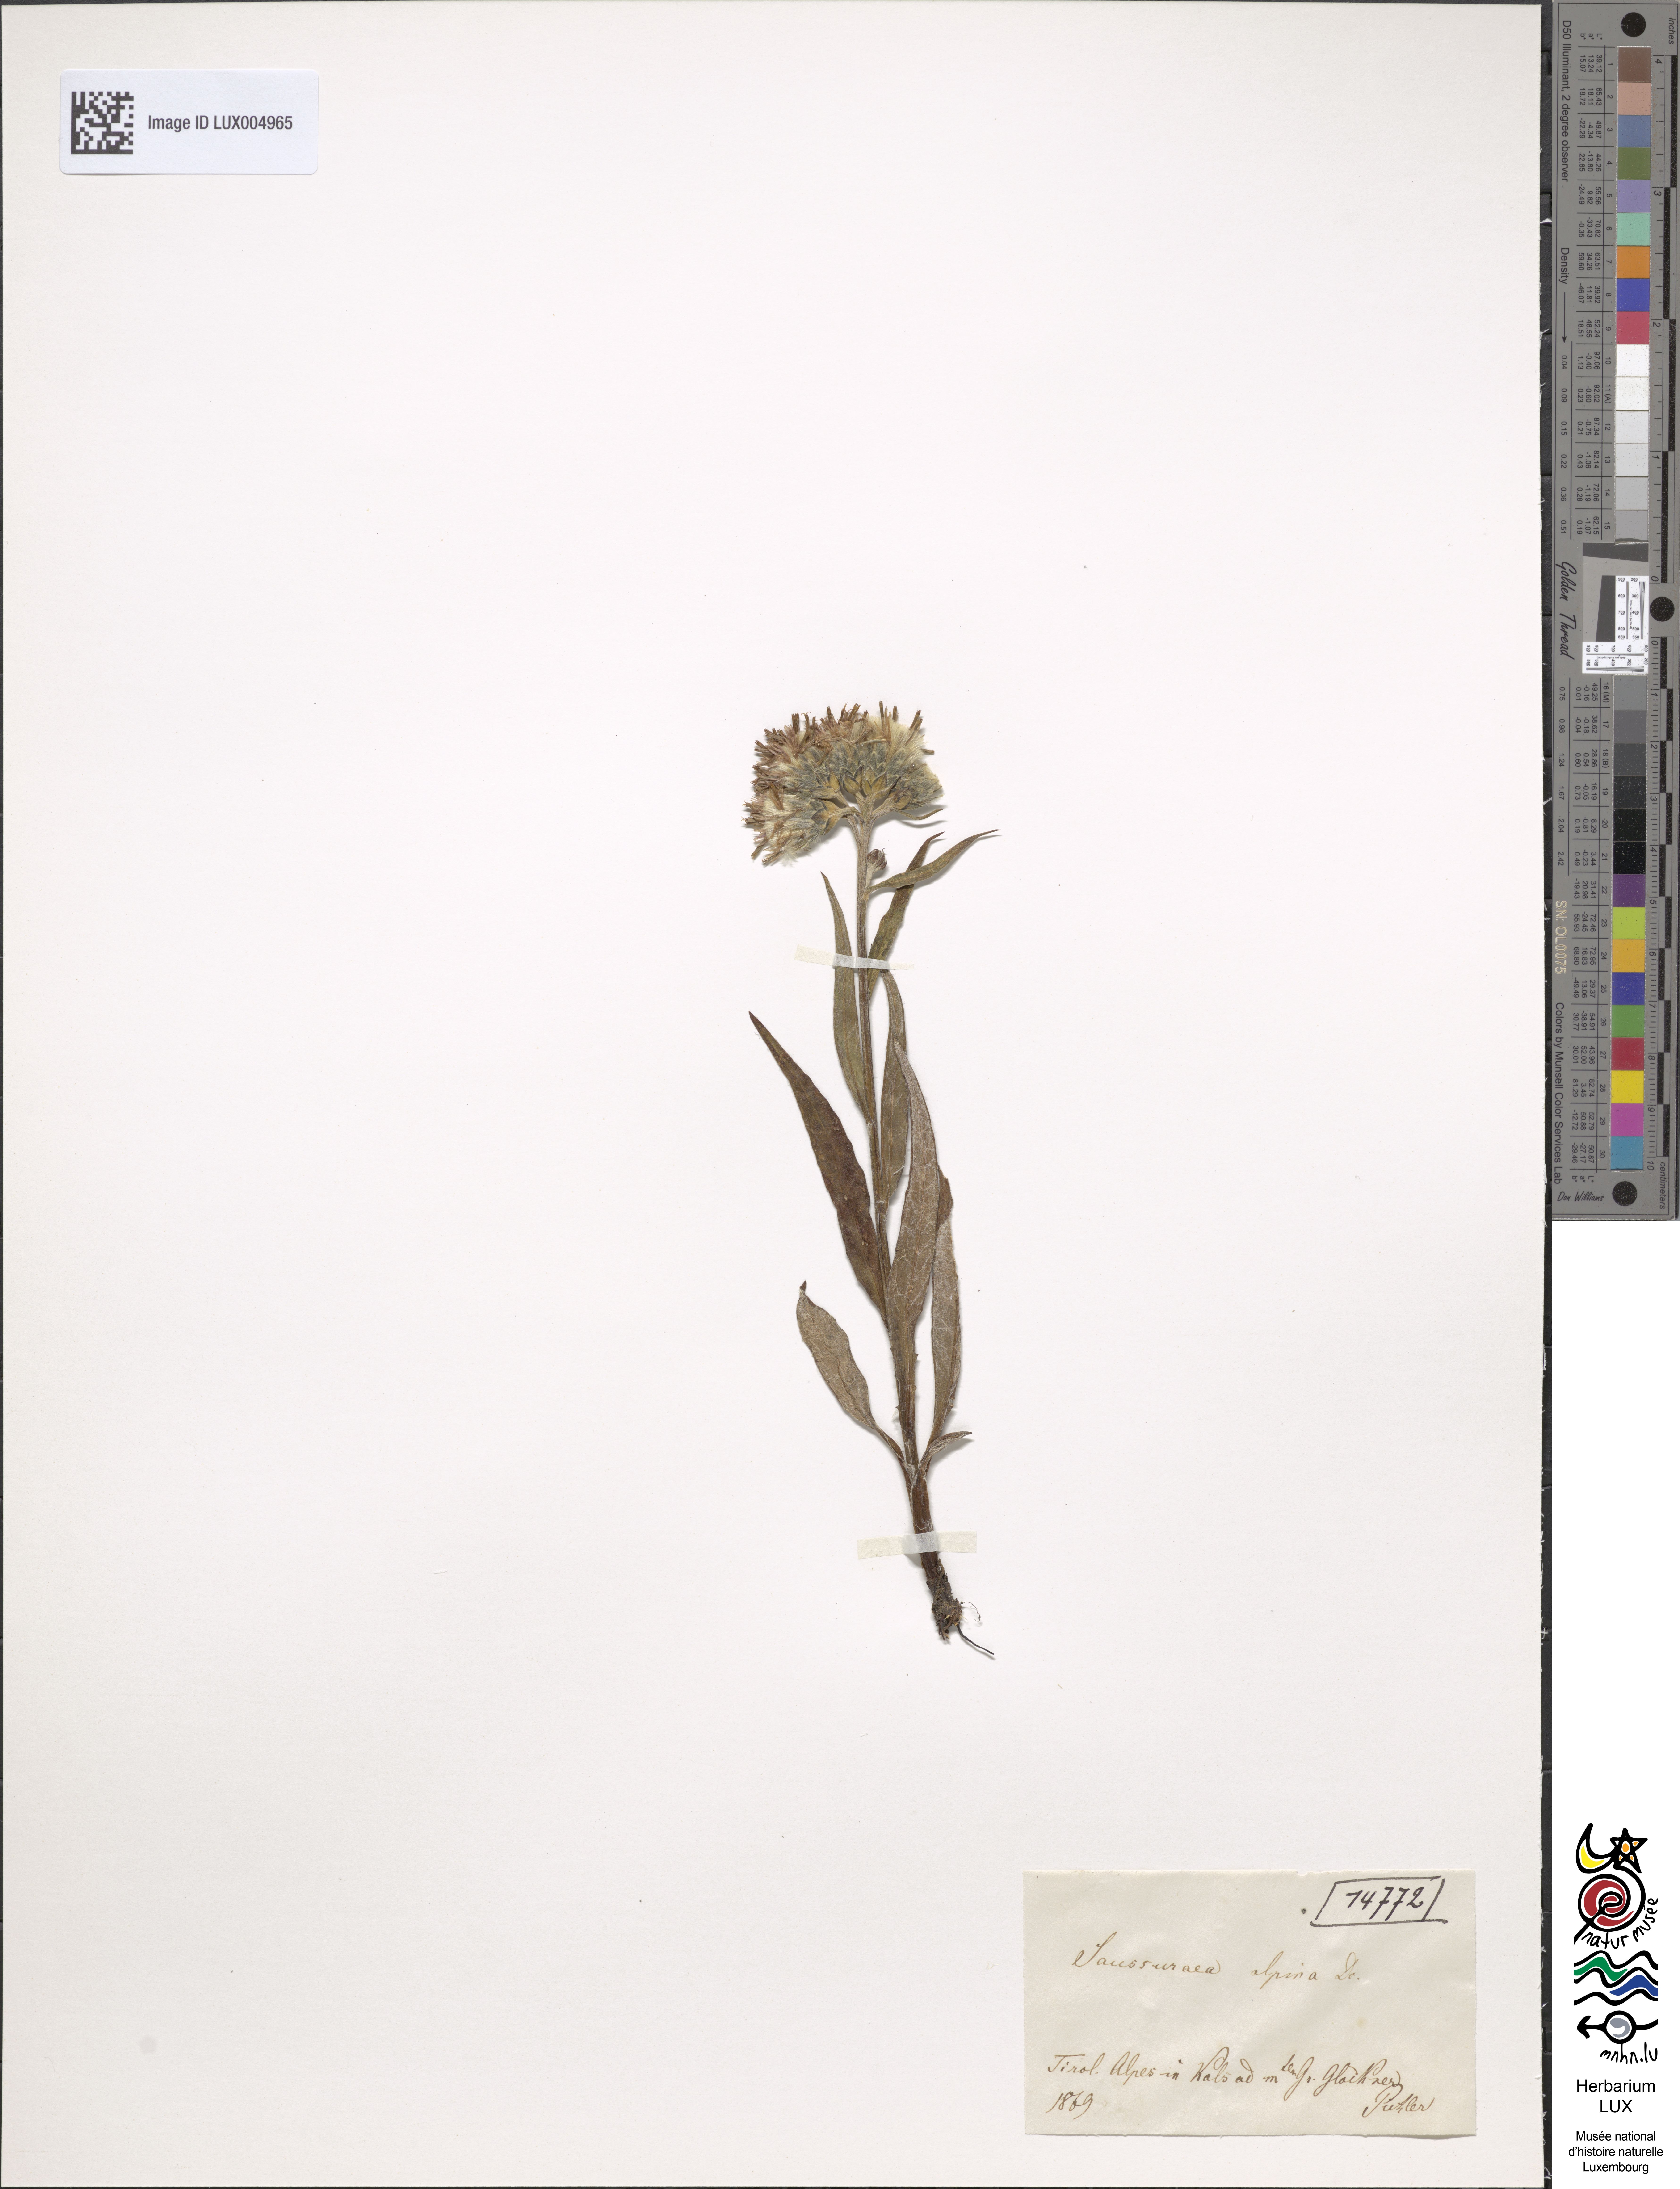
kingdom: Plantae
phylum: Tracheophyta
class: Magnoliopsida
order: Asterales
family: Asteraceae
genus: Saussurea
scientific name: Saussurea alpina
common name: Alpine saw-wort
